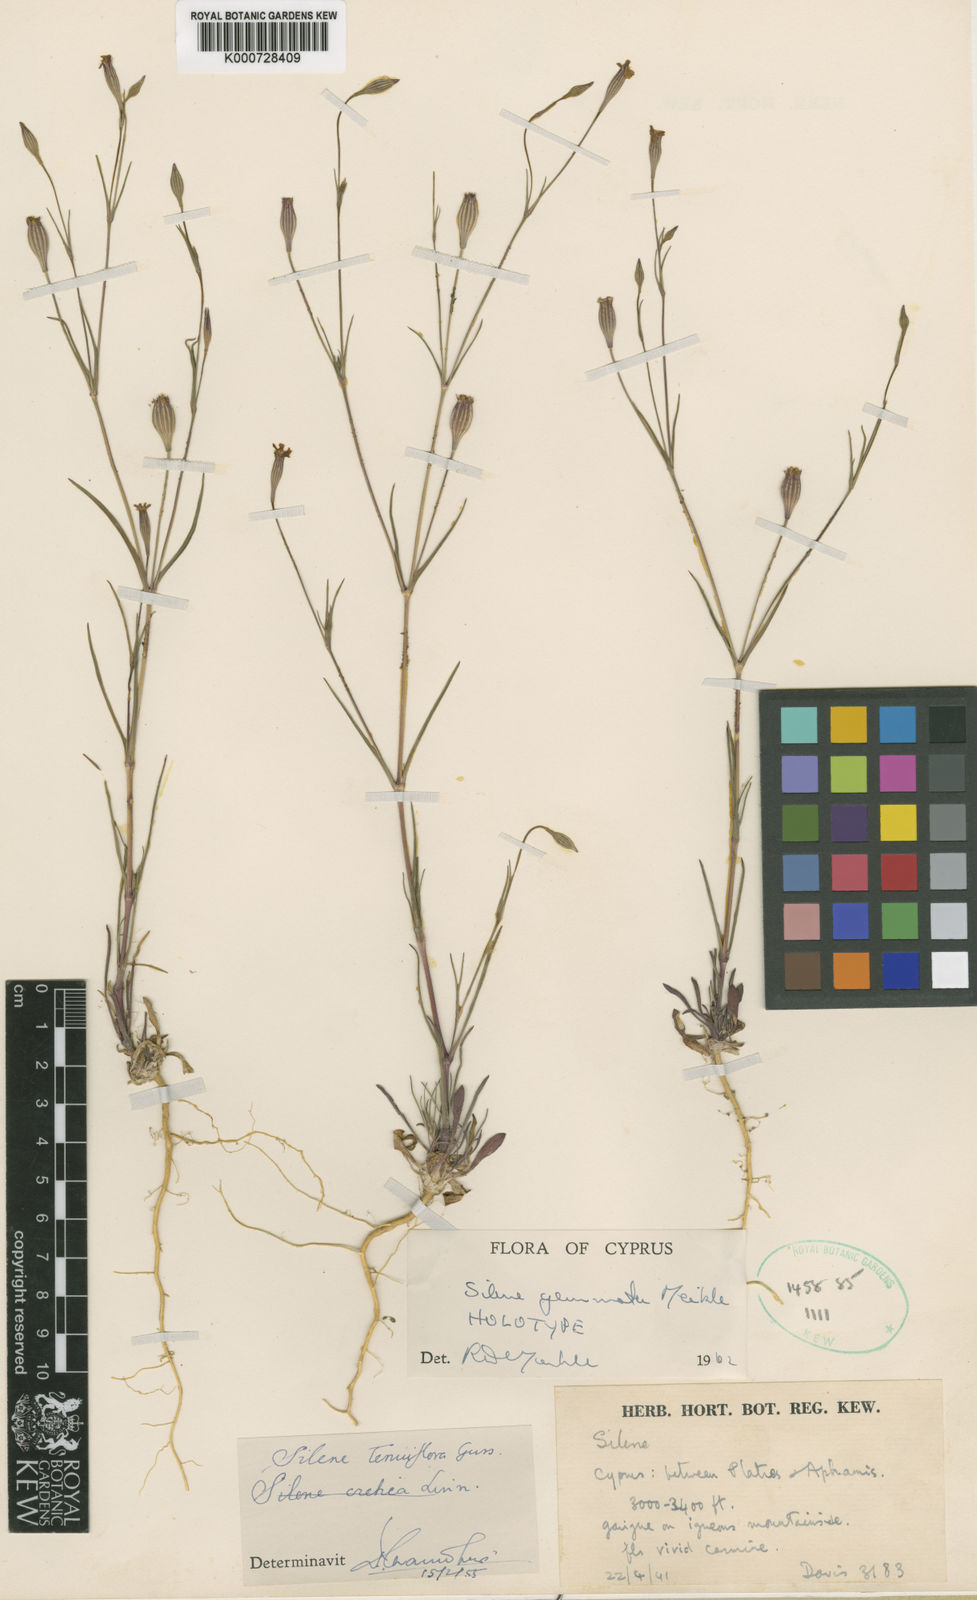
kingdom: Plantae
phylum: Tracheophyta
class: Magnoliopsida
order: Caryophyllales
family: Caryophyllaceae
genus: Silene
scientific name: Silene gemmata
